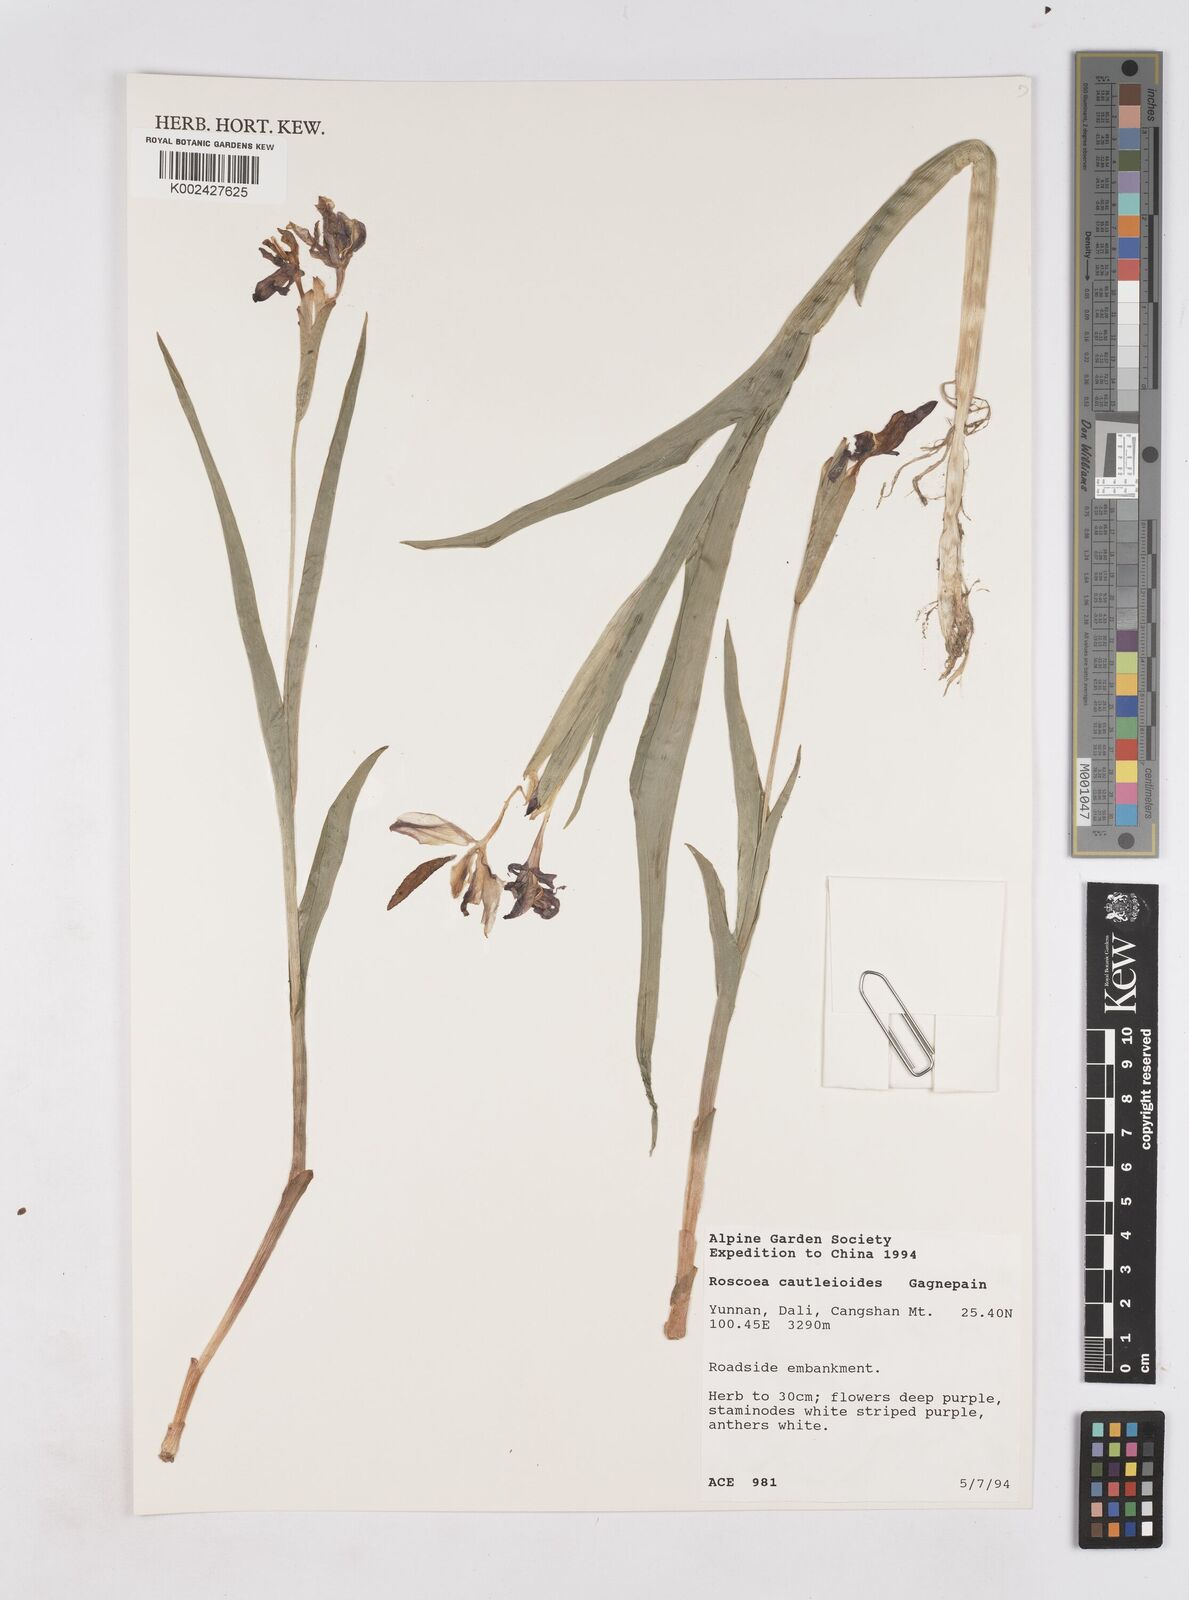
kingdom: Plantae
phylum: Tracheophyta
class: Liliopsida
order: Zingiberales
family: Zingiberaceae
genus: Roscoea
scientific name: Roscoea cautleyoides
